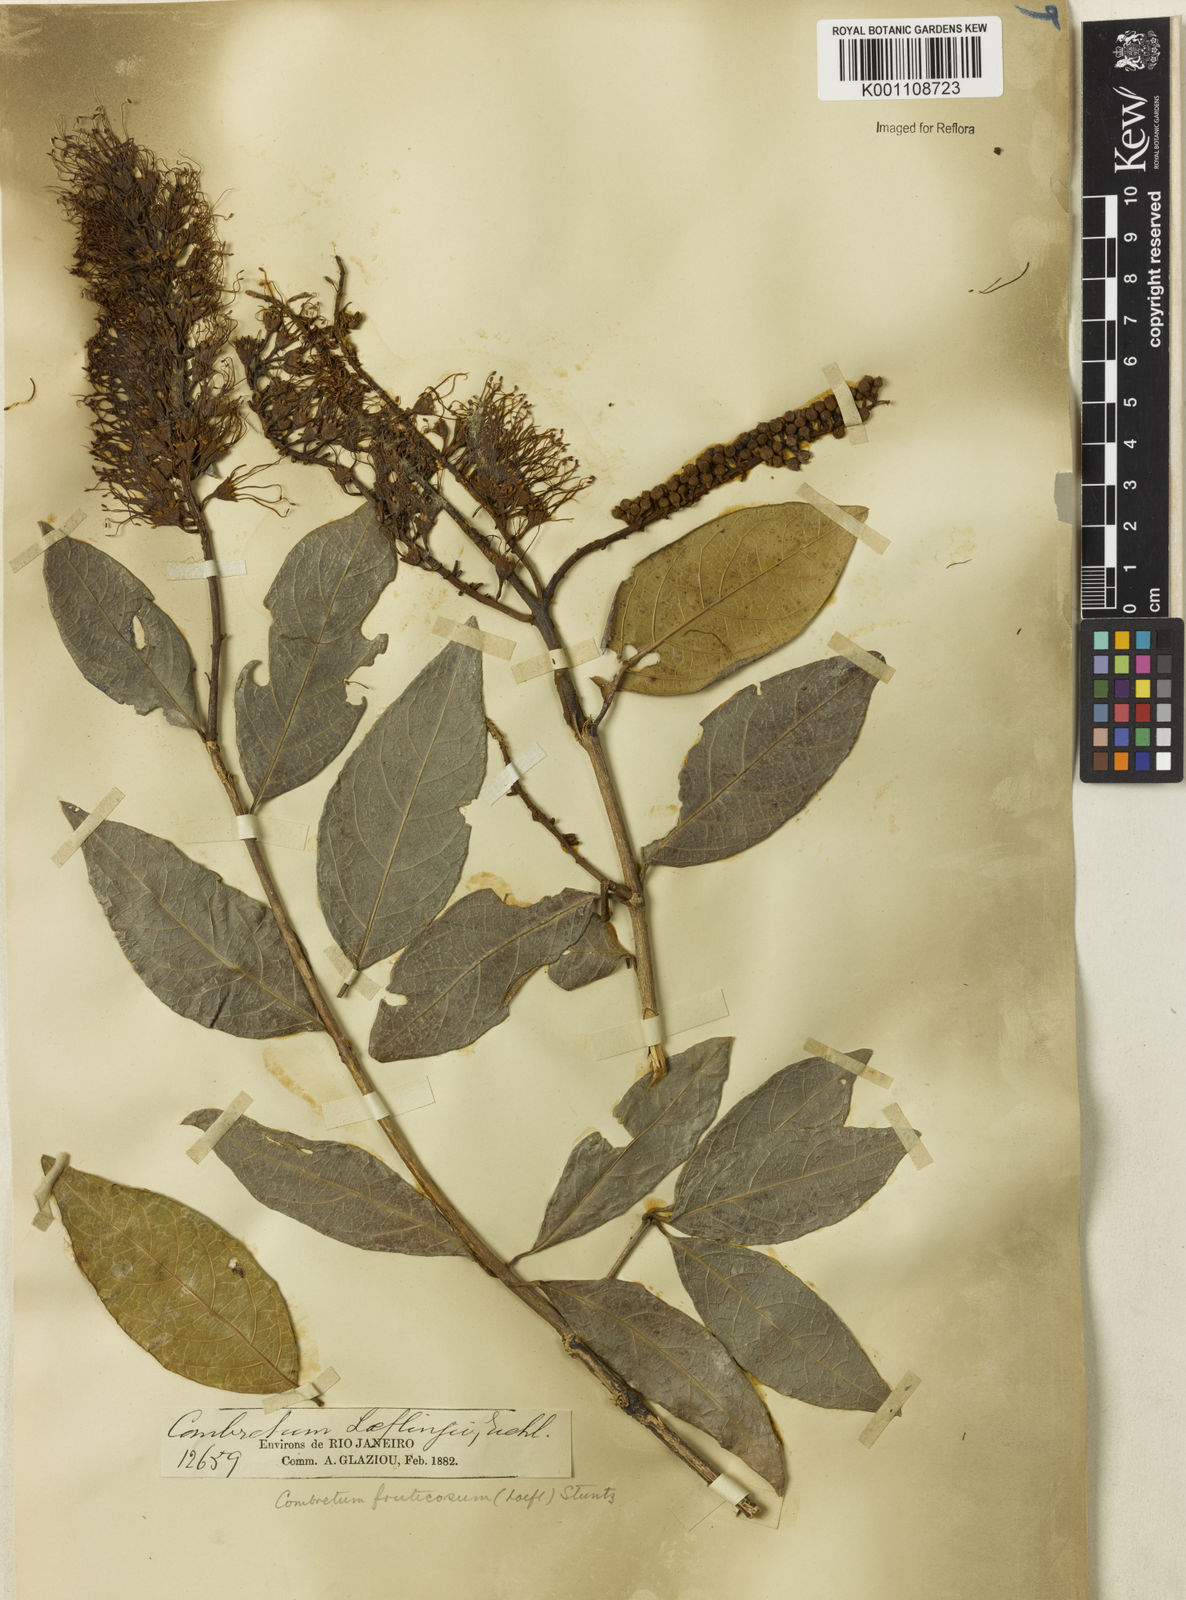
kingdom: Plantae
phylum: Tracheophyta
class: Magnoliopsida
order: Myrtales
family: Combretaceae
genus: Combretum
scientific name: Combretum fruticosum
